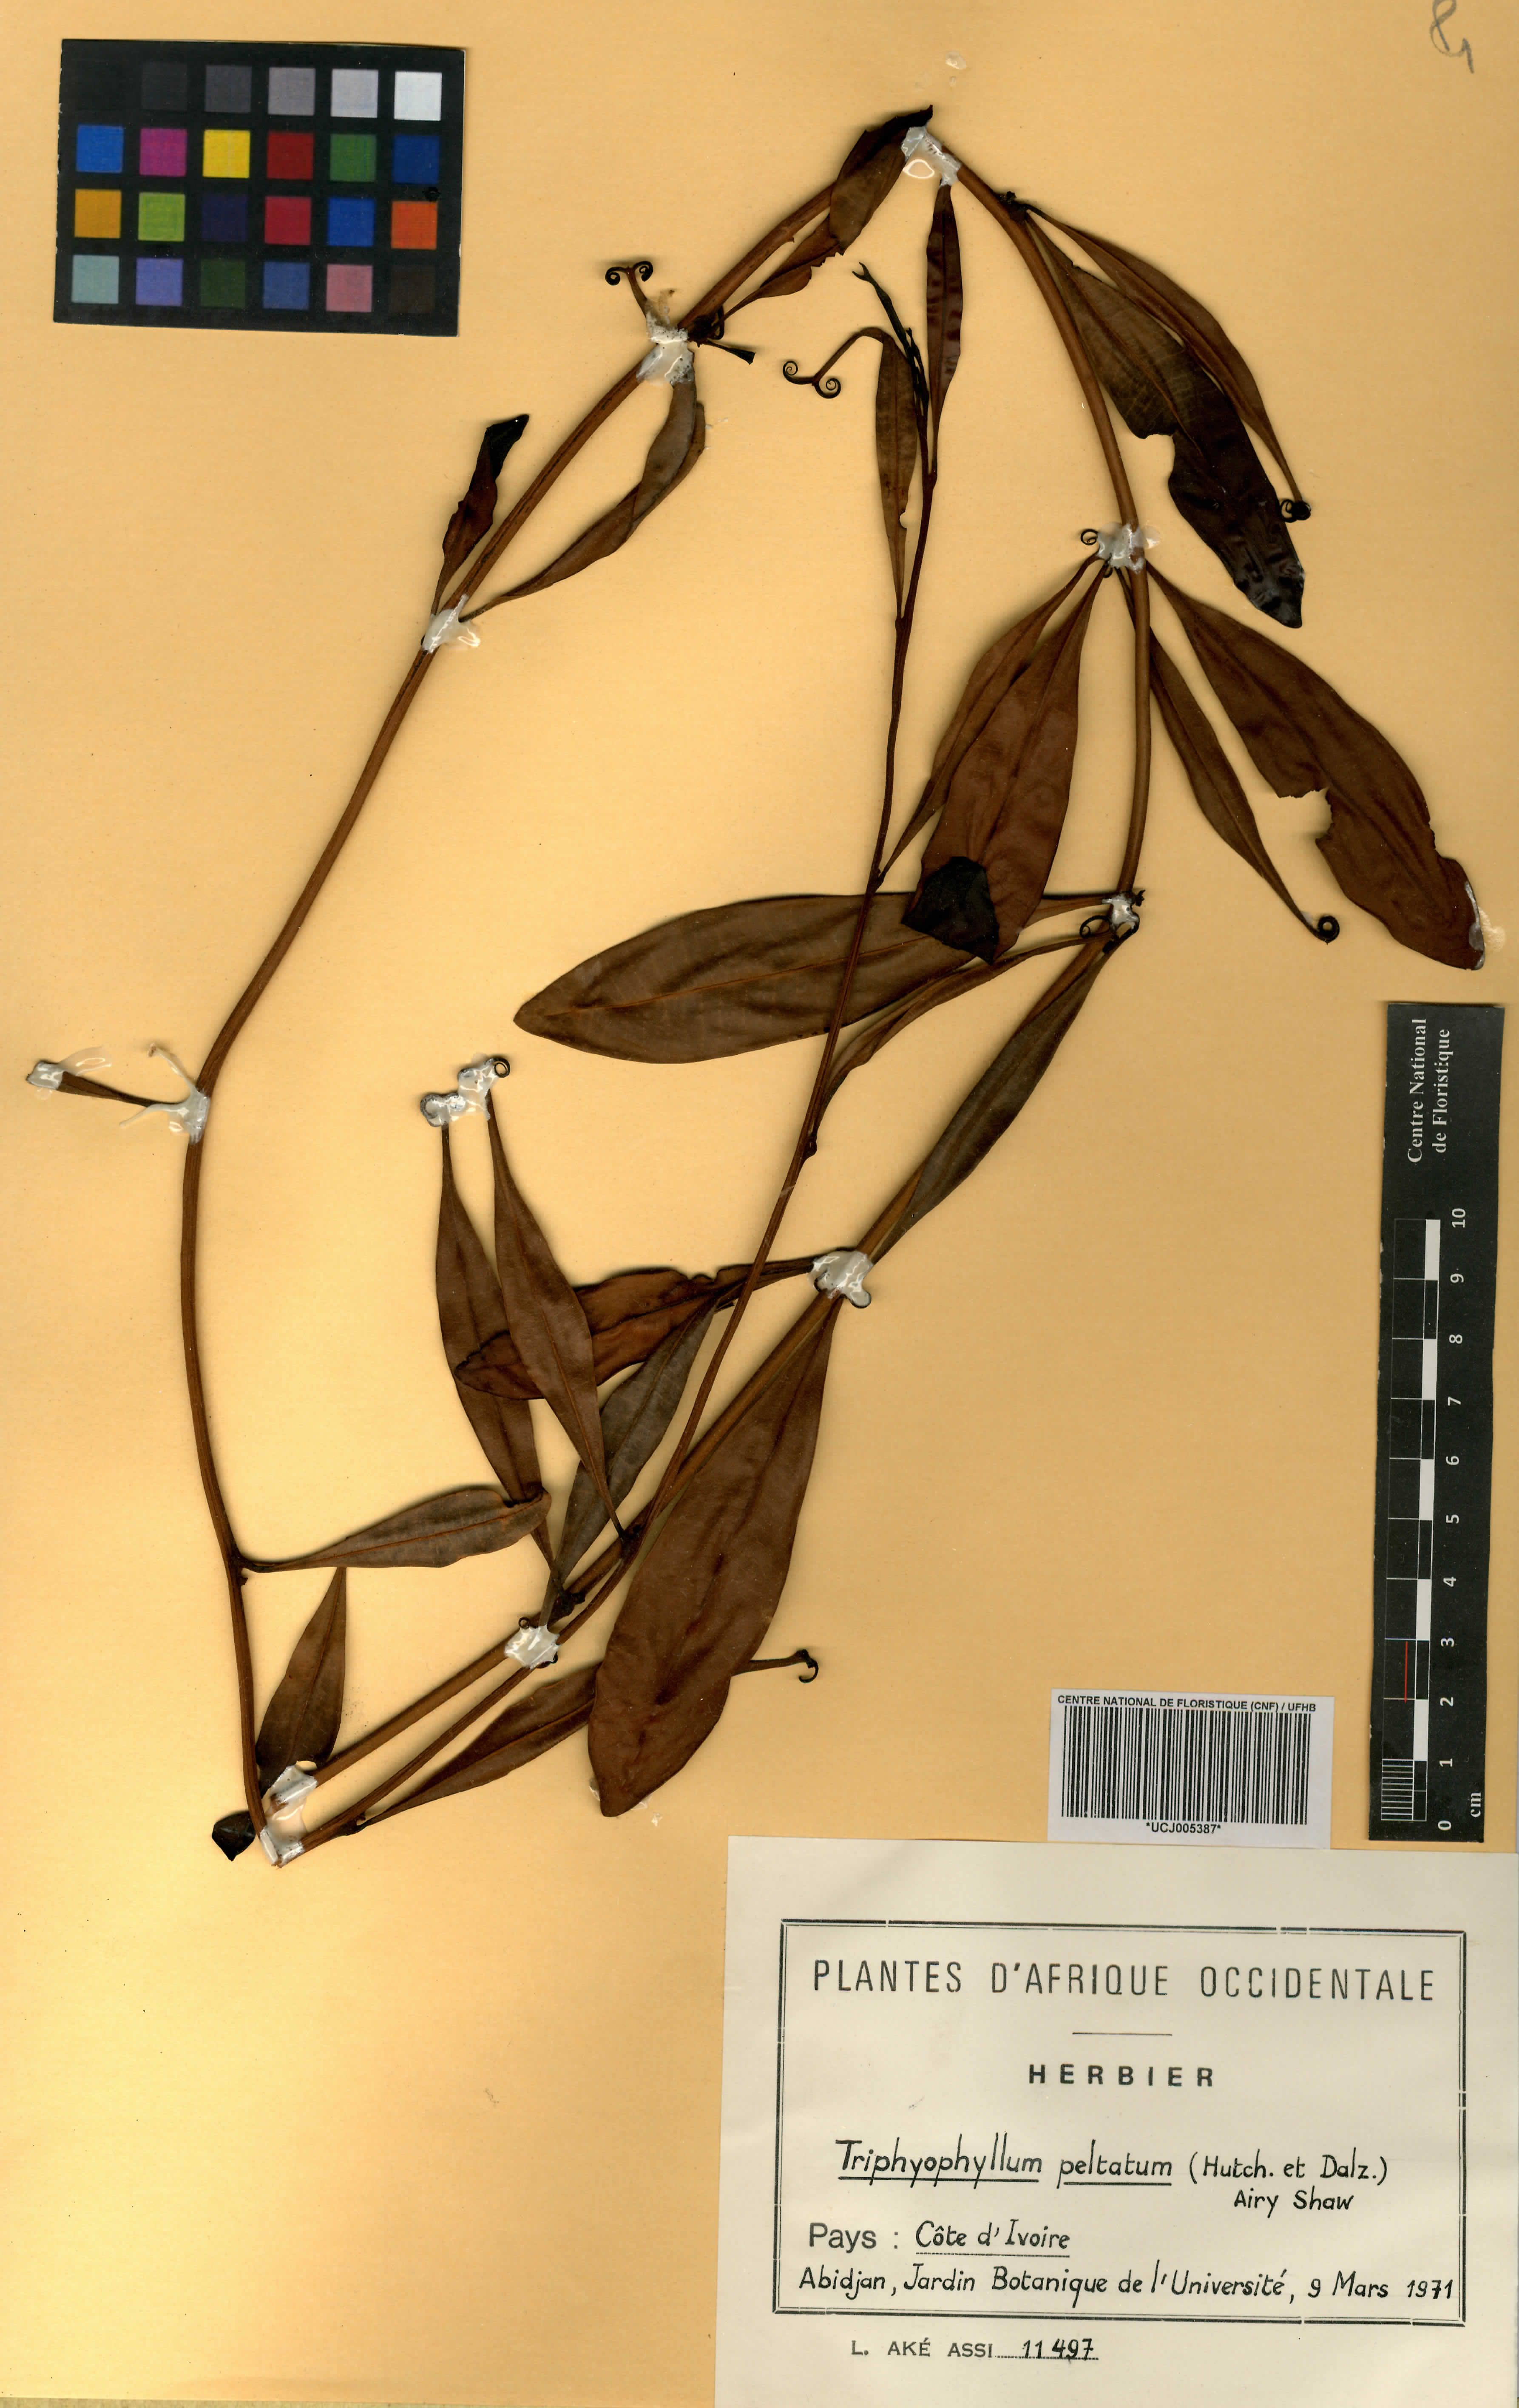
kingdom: Plantae
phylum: Tracheophyta
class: Magnoliopsida
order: Caryophyllales
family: Dioncophyllaceae
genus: Triphyophyllum
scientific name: Triphyophyllum peltatum
